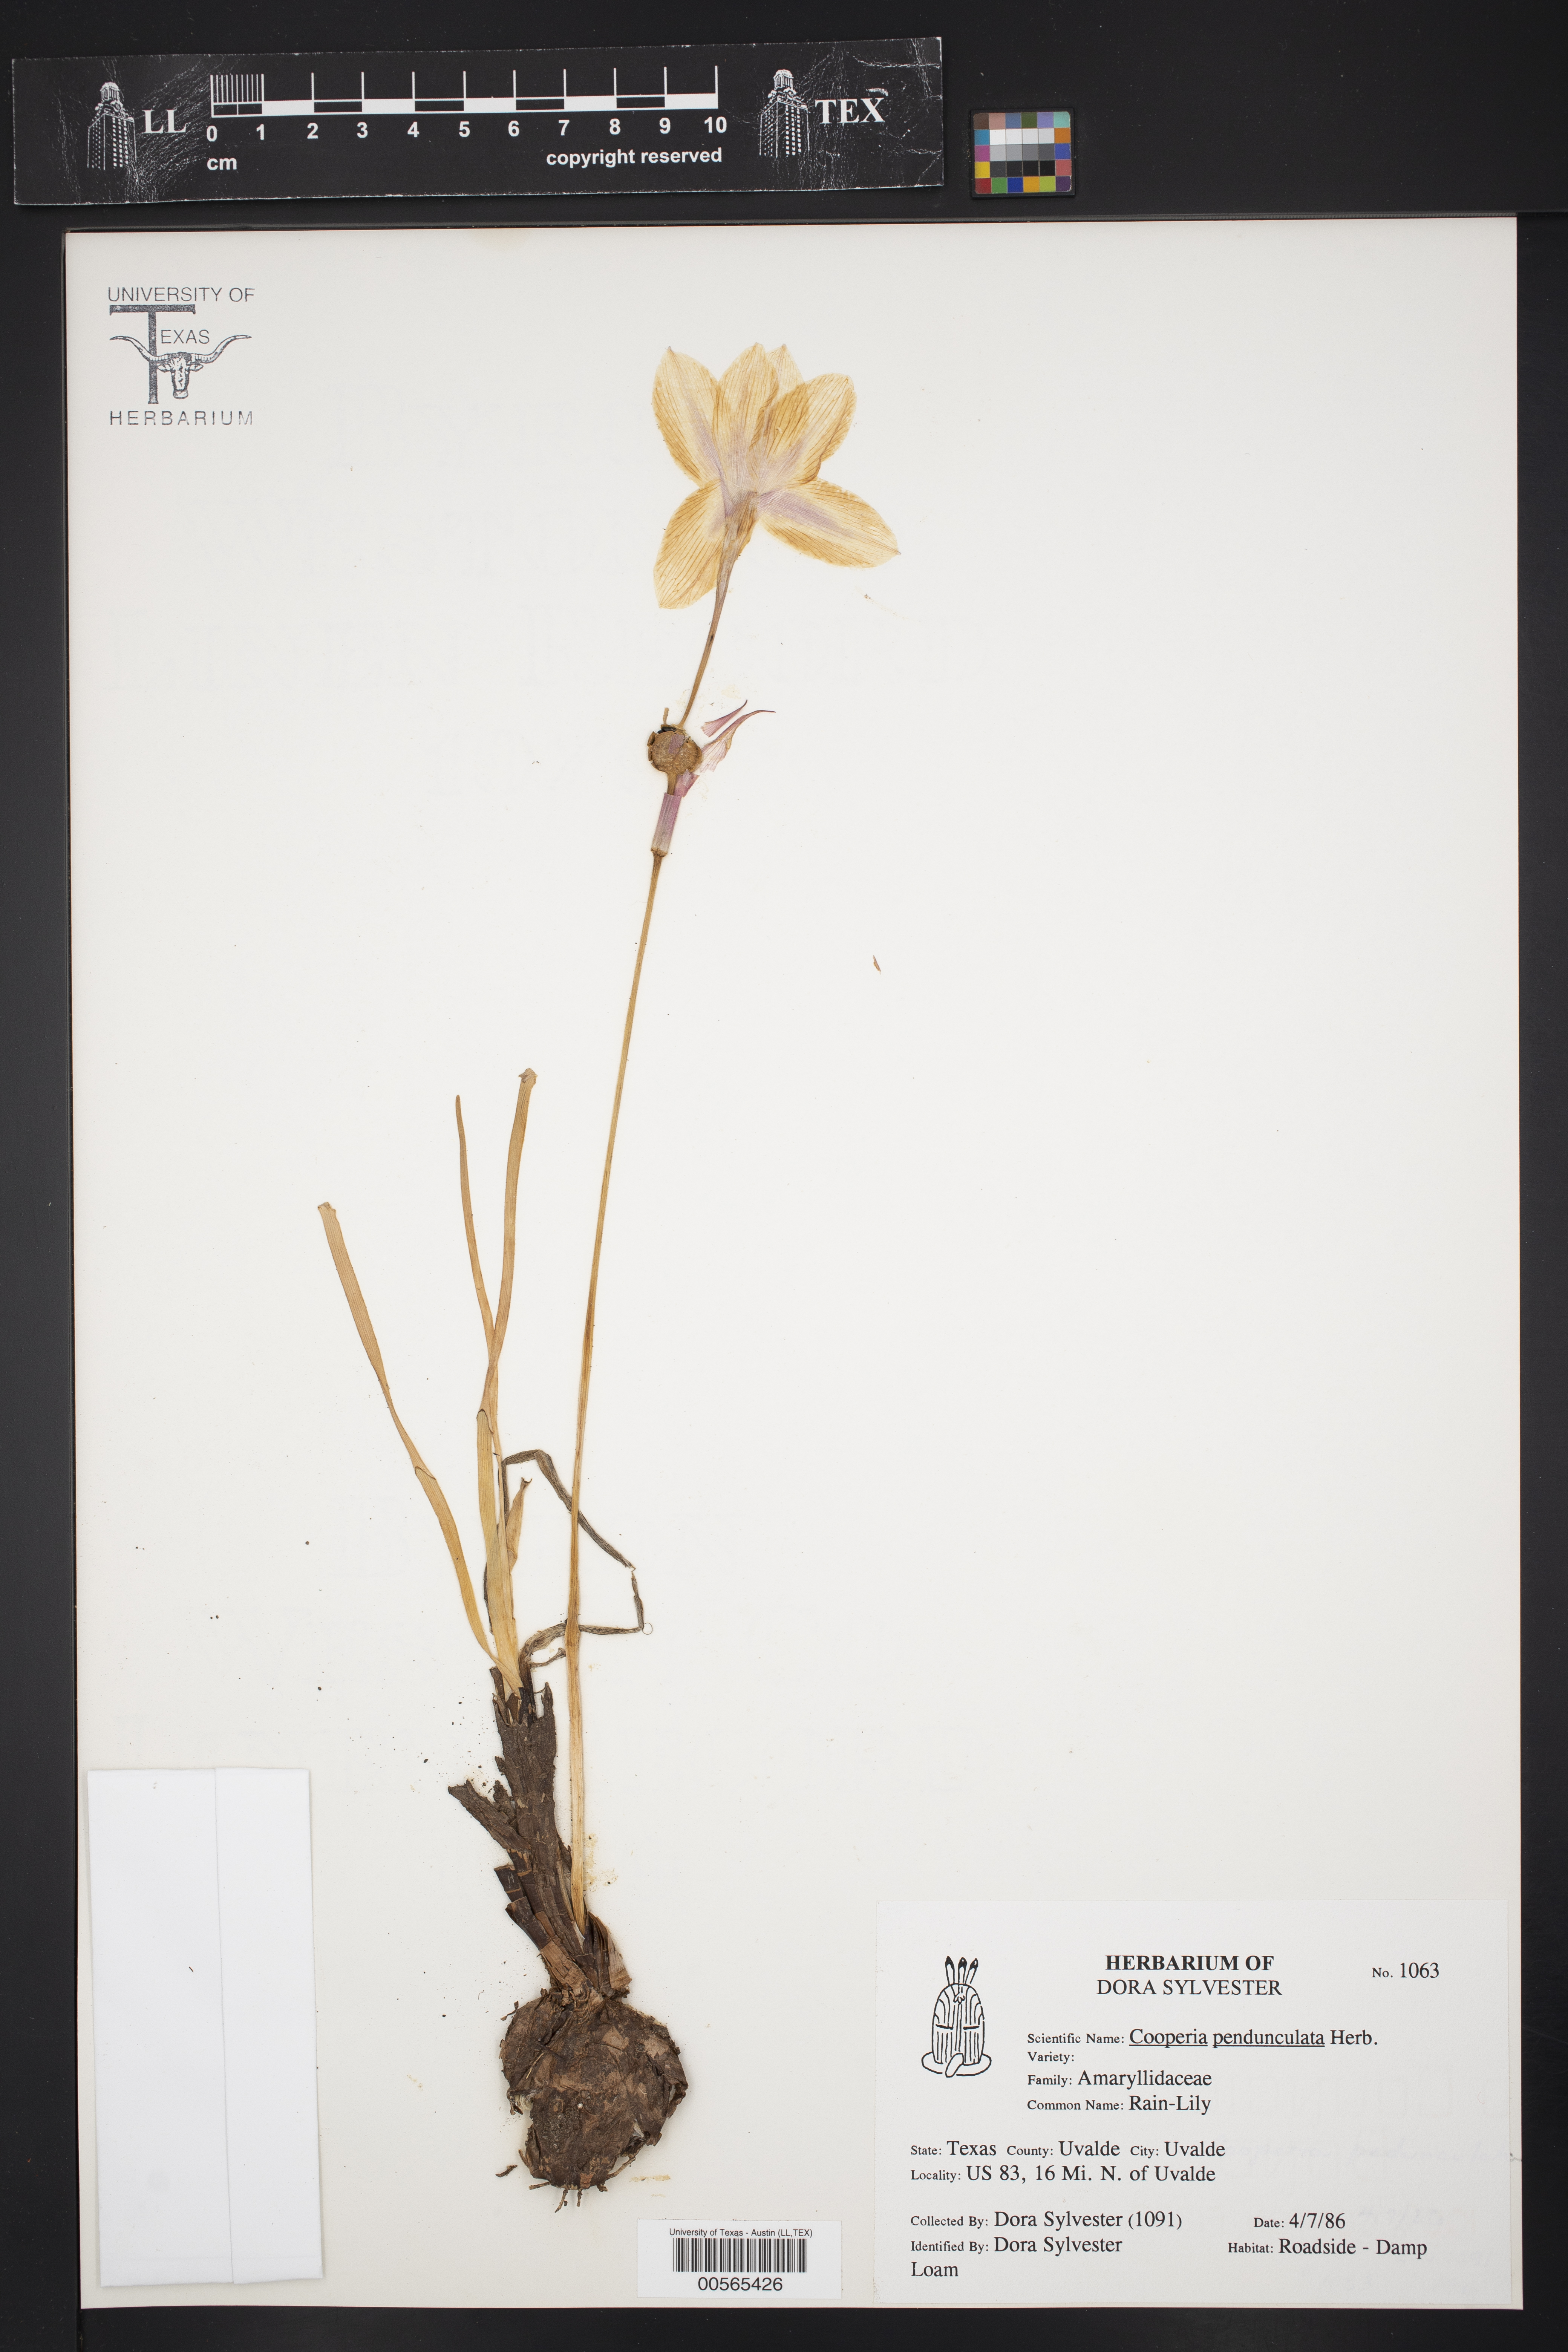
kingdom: Plantae
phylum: Tracheophyta
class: Liliopsida
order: Asparagales
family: Amaryllidaceae
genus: Zephyranthes
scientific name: Zephyranthes drummondii
